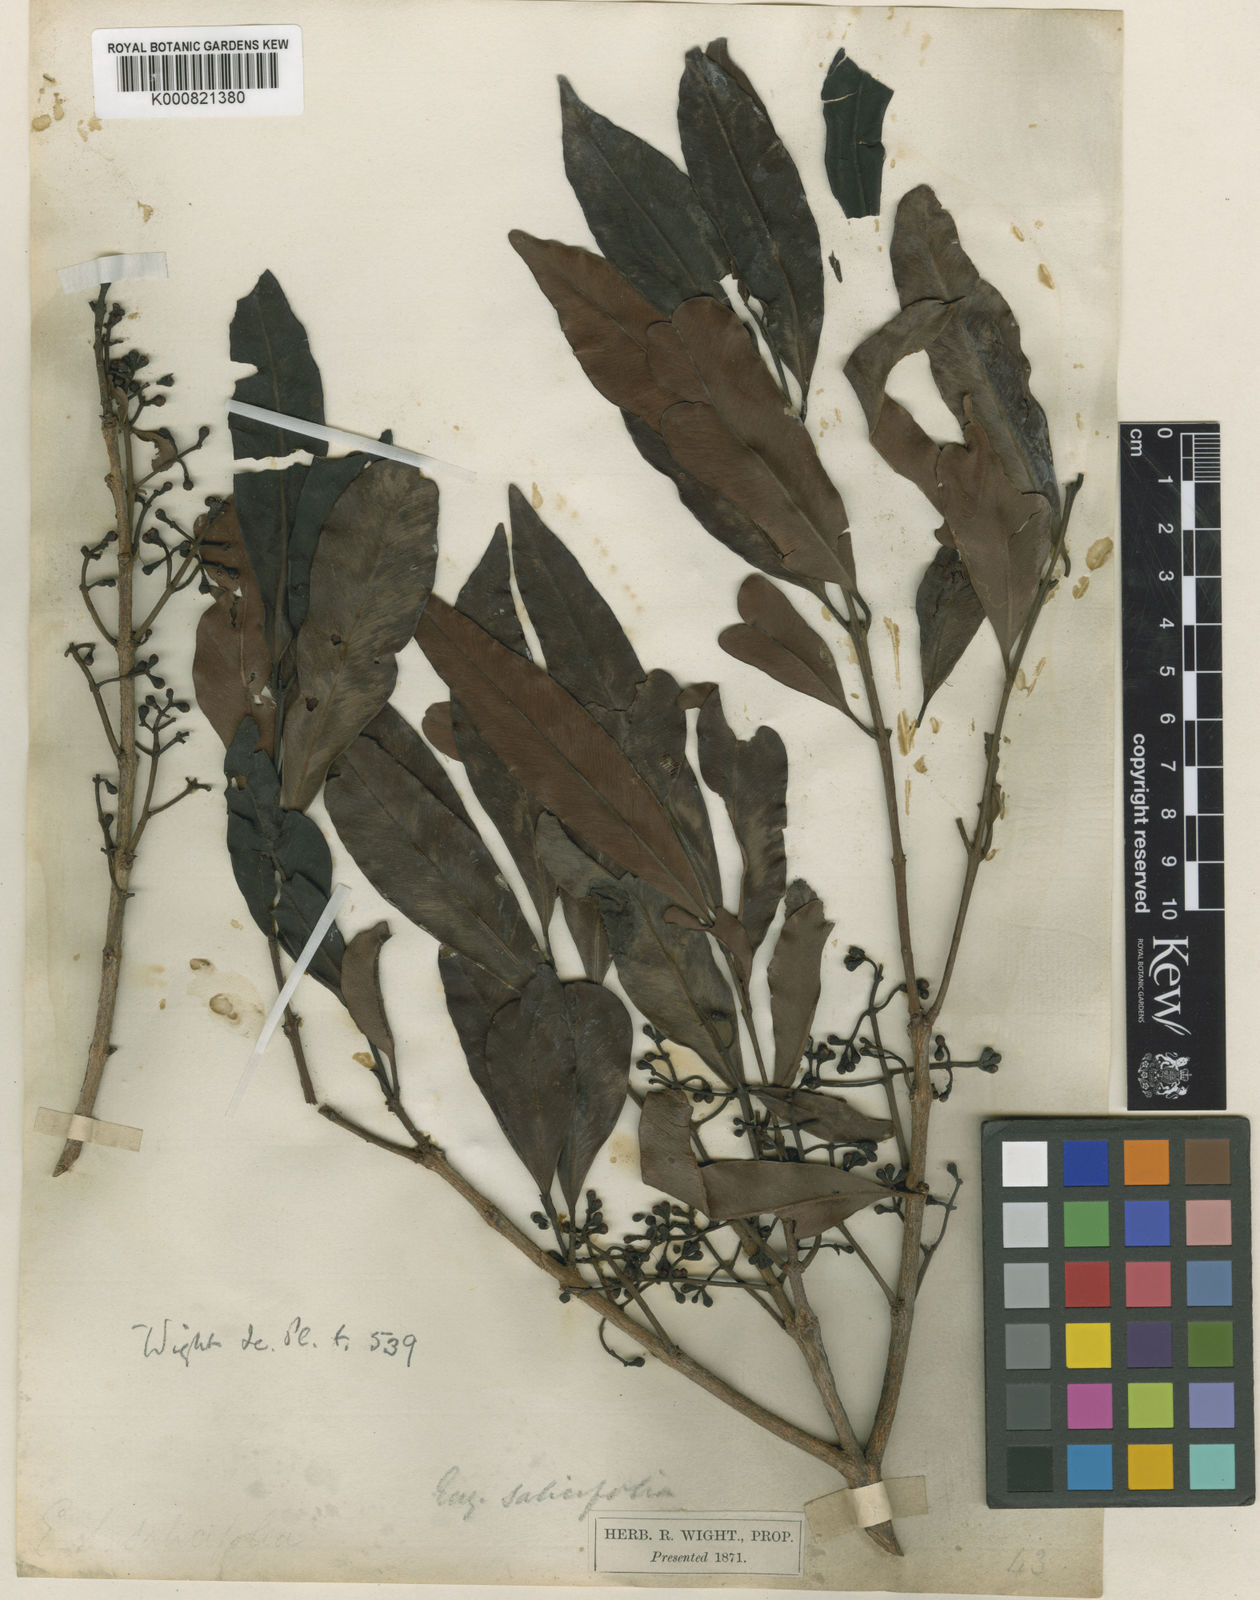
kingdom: Plantae
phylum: Tracheophyta
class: Magnoliopsida
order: Myrtales
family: Myrtaceae
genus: Syzygium
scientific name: Syzygium salicifolium
